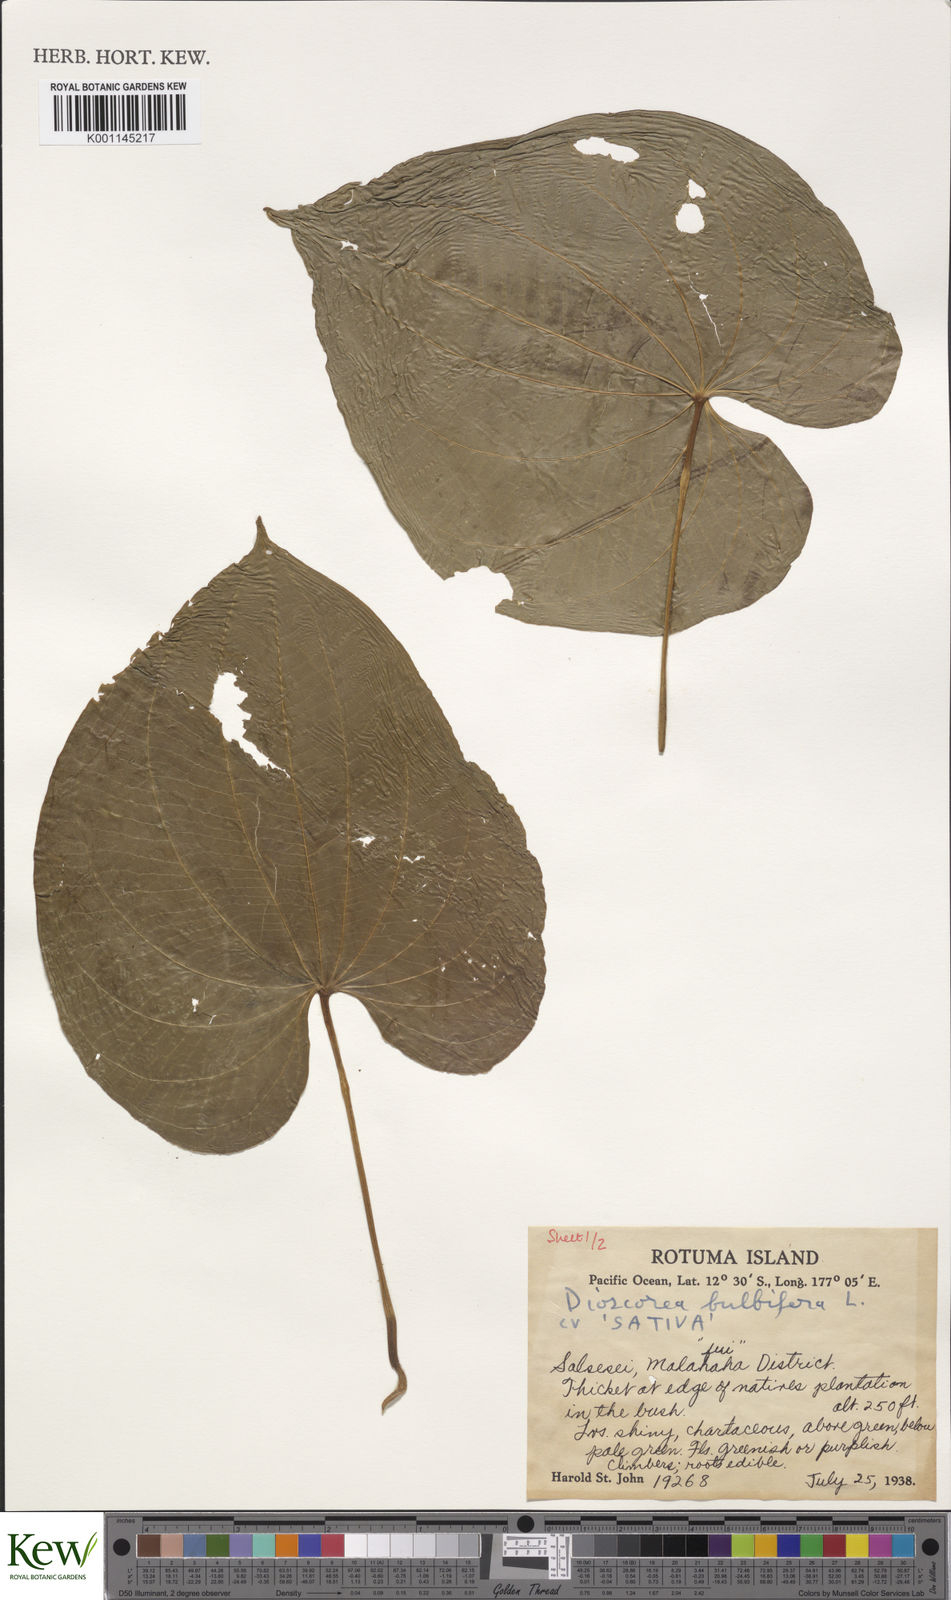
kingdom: Plantae
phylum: Tracheophyta
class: Liliopsida
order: Dioscoreales
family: Dioscoreaceae
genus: Dioscorea
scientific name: Dioscorea bulbifera
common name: Air yam
